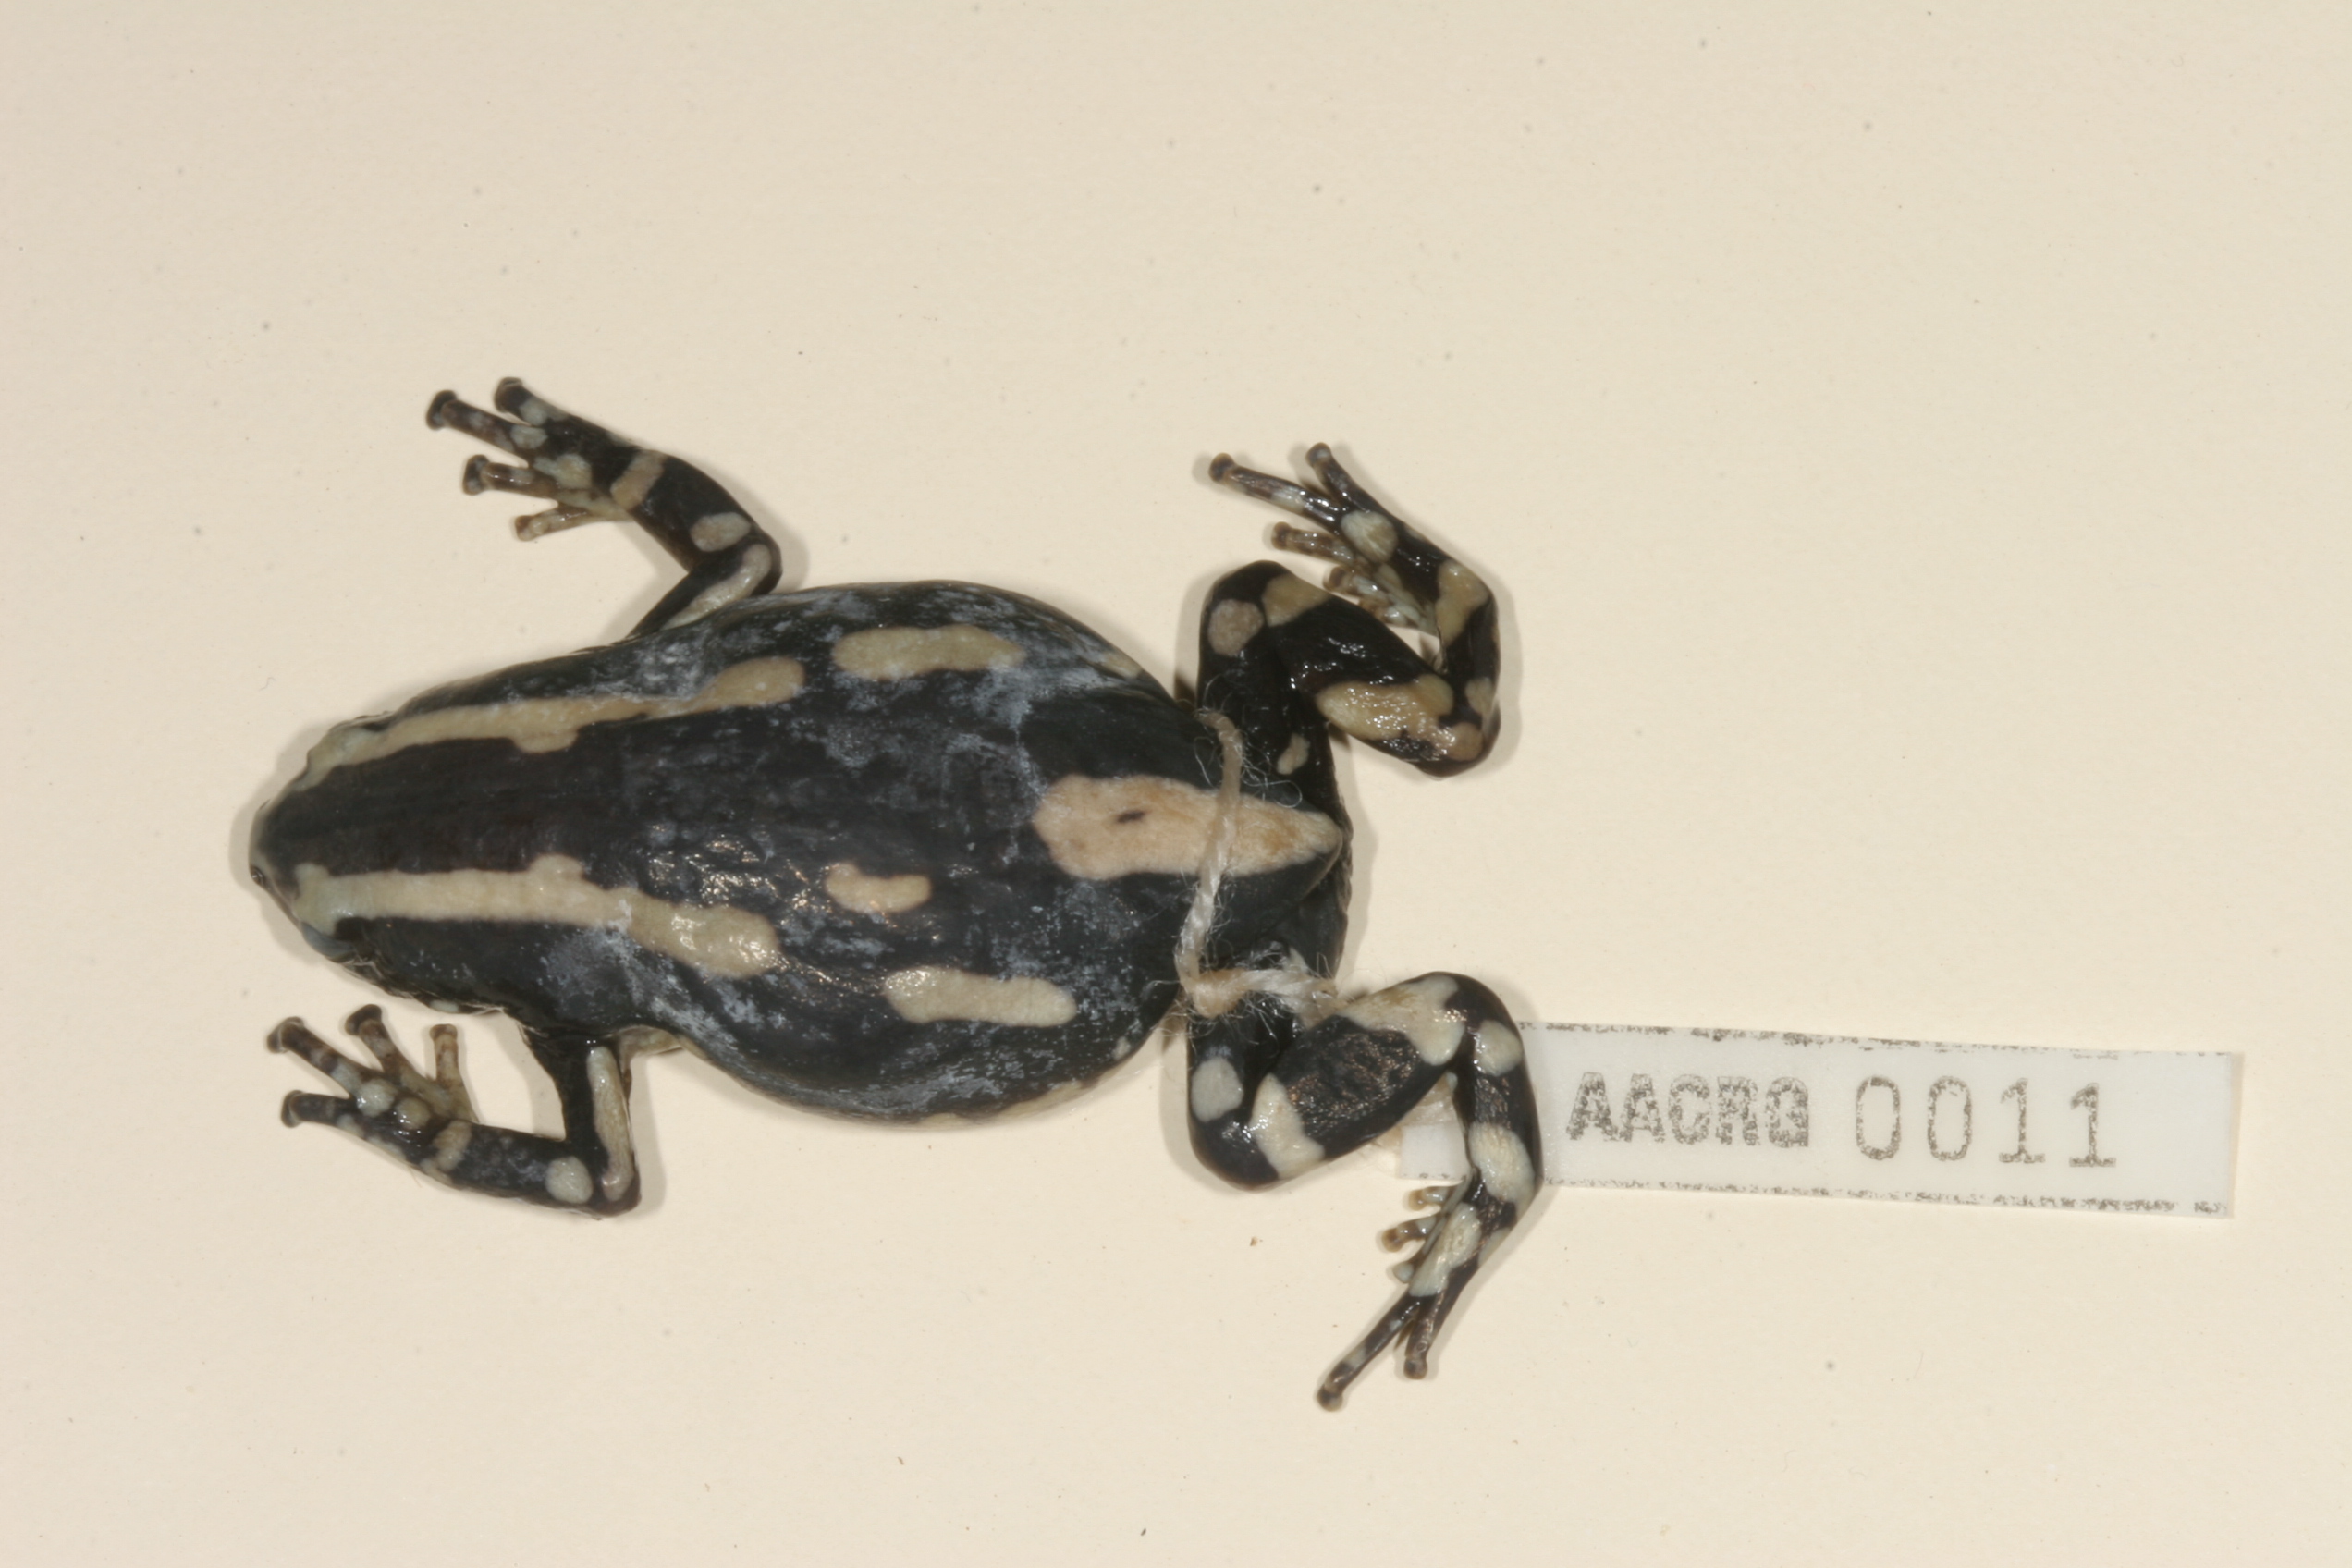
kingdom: Animalia
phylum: Chordata
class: Amphibia
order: Anura
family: Microhylidae
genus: Phrynomantis
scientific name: Phrynomantis bifasciatus
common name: Banded rubber frog
